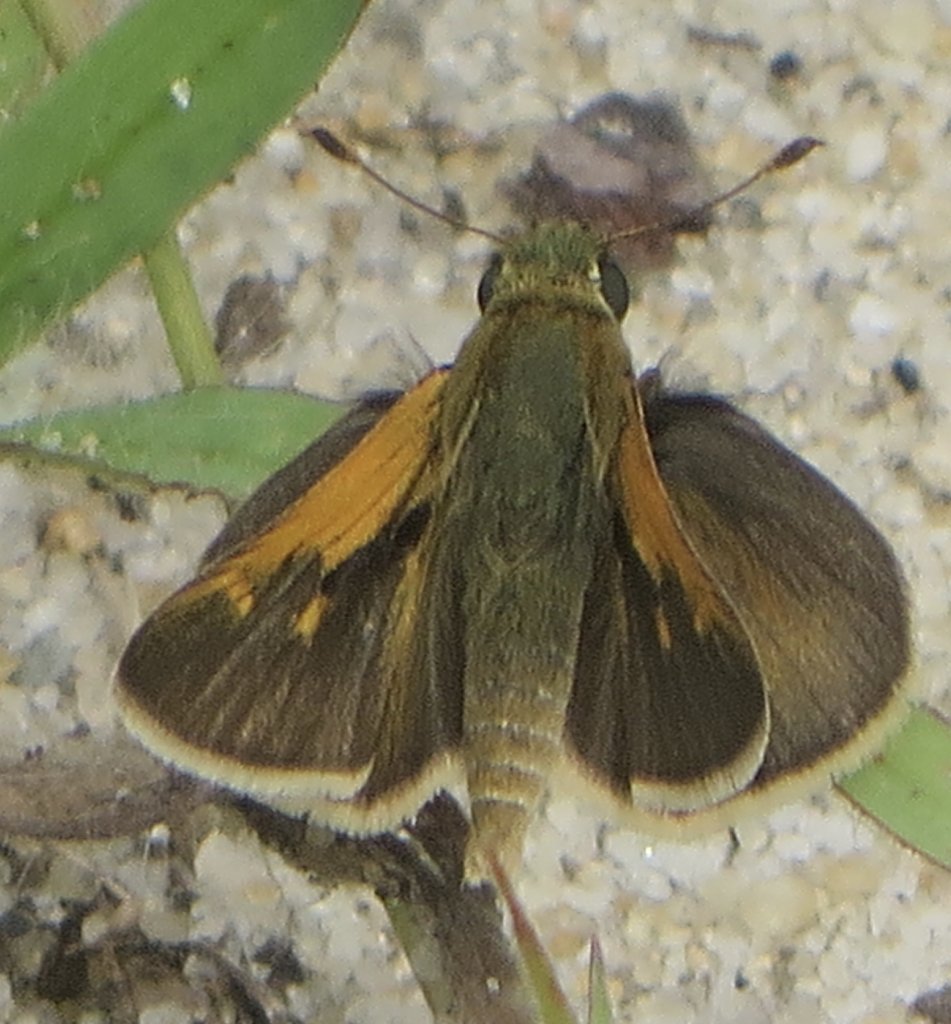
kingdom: Animalia
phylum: Arthropoda
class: Insecta
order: Lepidoptera
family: Hesperiidae
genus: Polites
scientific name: Polites themistocles
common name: Tawny-edged Skipper
